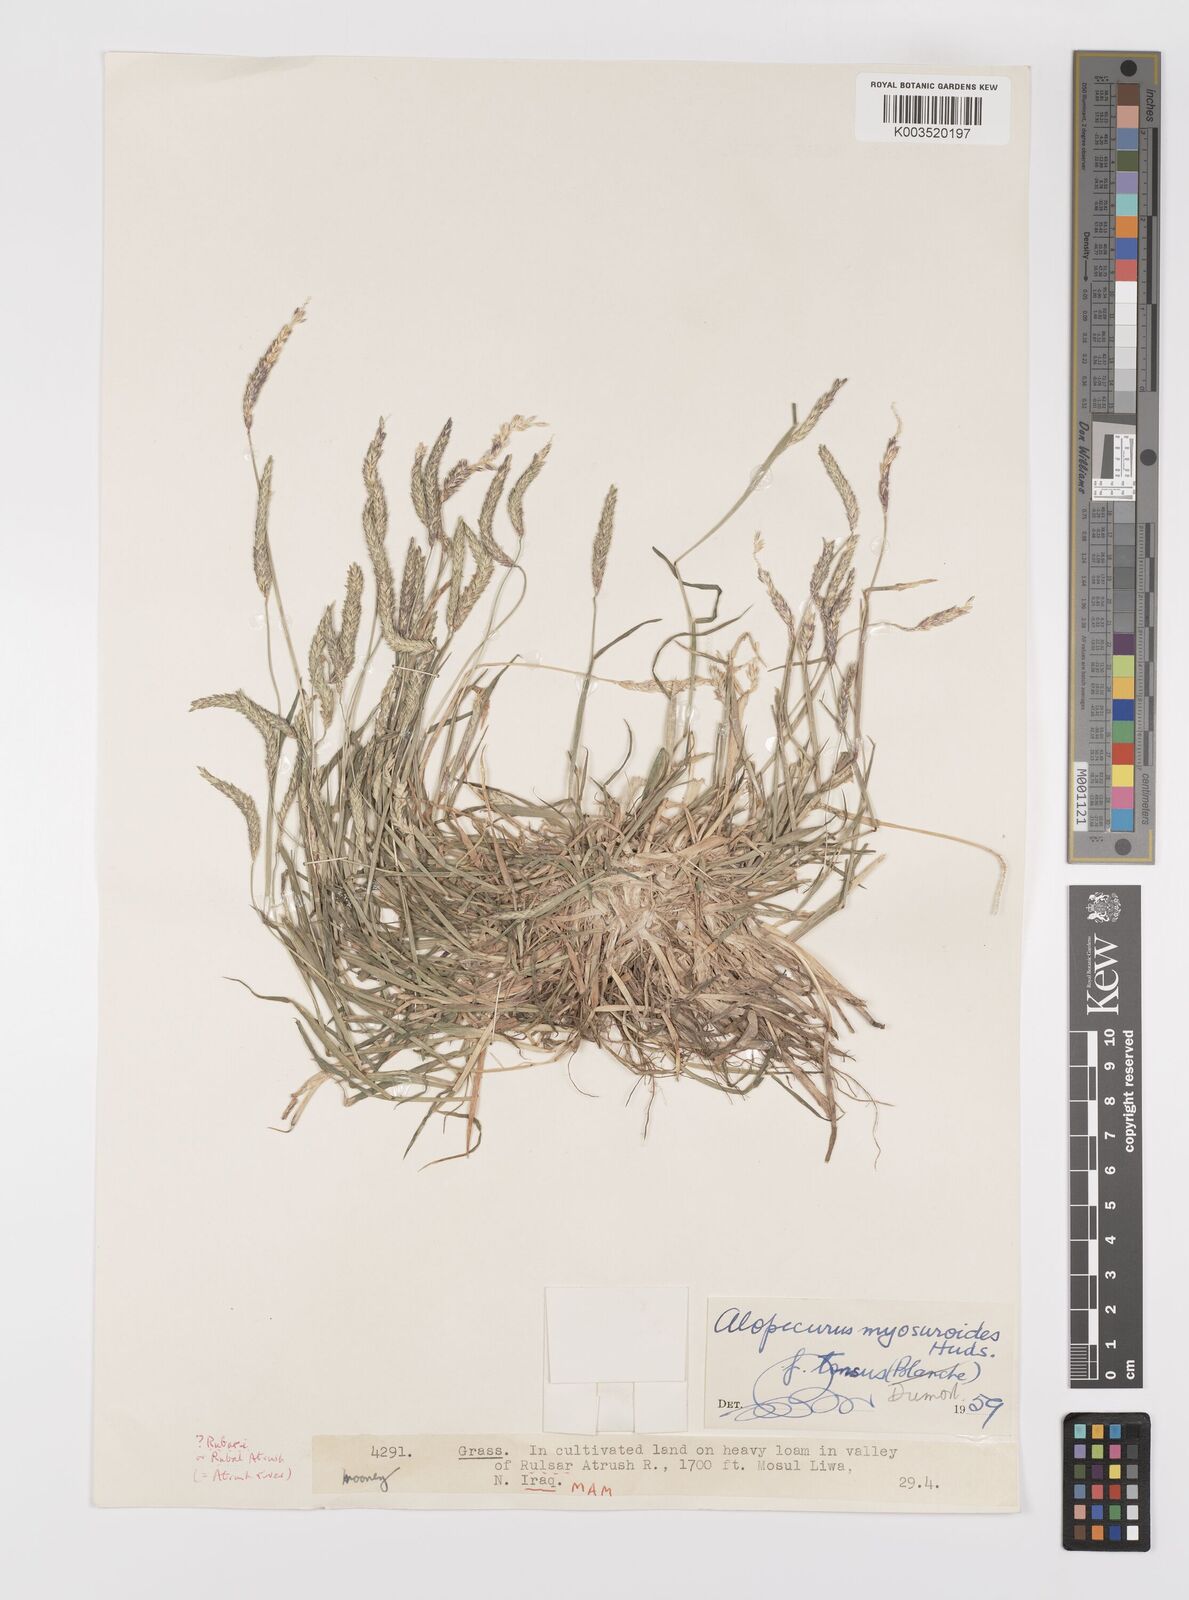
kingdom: Plantae
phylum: Tracheophyta
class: Liliopsida
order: Poales
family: Poaceae
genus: Alopecurus
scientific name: Alopecurus myosuroides
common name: Black-grass
